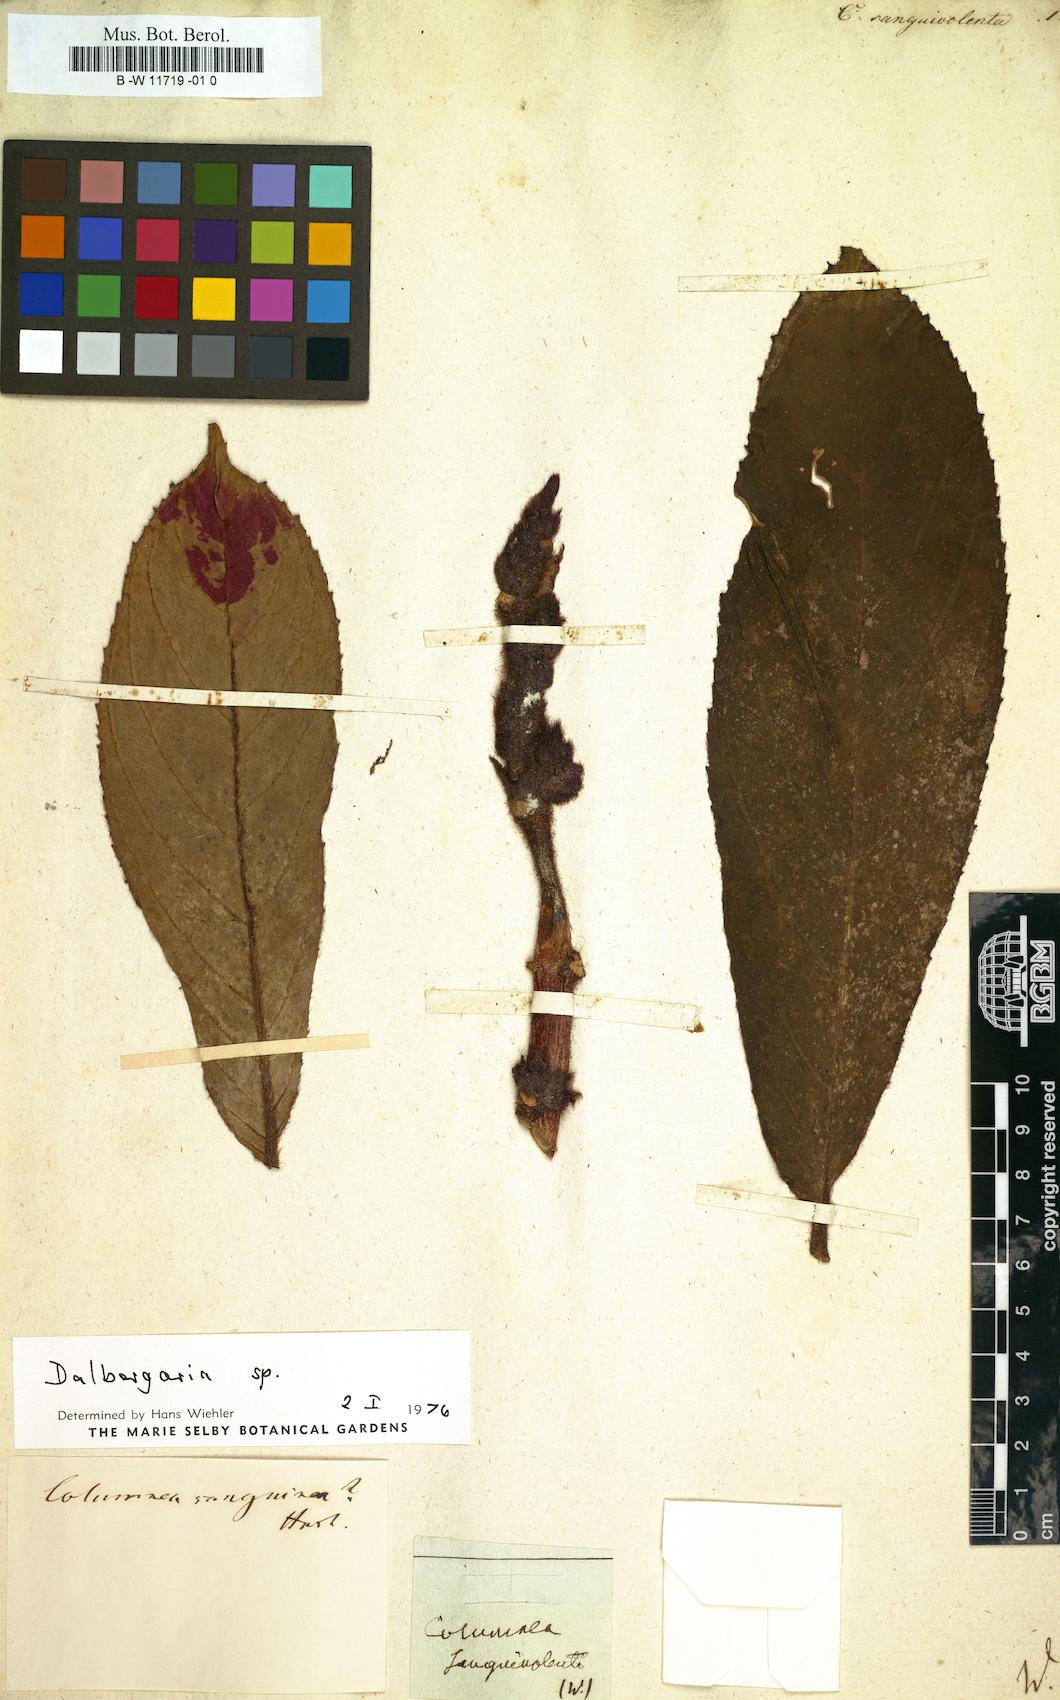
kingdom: Plantae
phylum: Tracheophyta
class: Magnoliopsida
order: Lamiales
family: Gesneriaceae
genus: Columnea
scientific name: Columnea sanguinolenta
